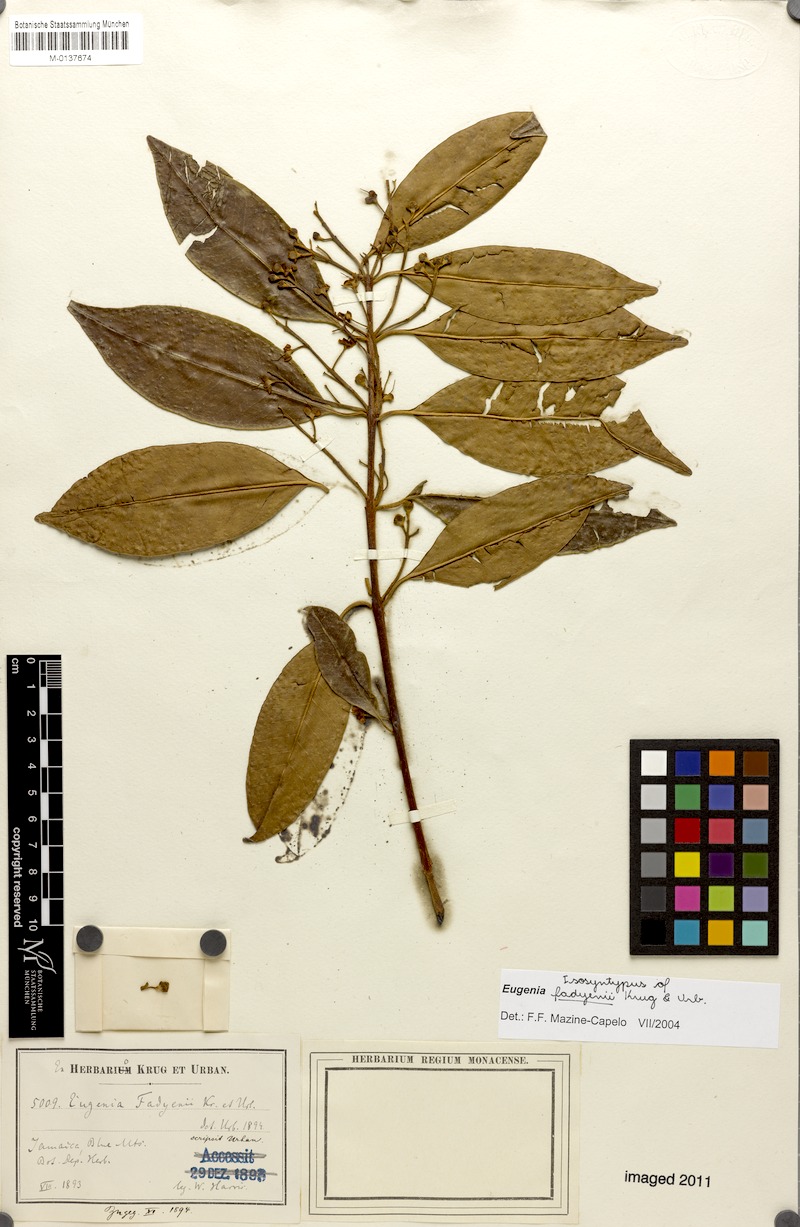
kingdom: Plantae
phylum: Tracheophyta
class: Magnoliopsida
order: Myrtales
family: Myrtaceae
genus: Eugenia
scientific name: Eugenia aeruginea
